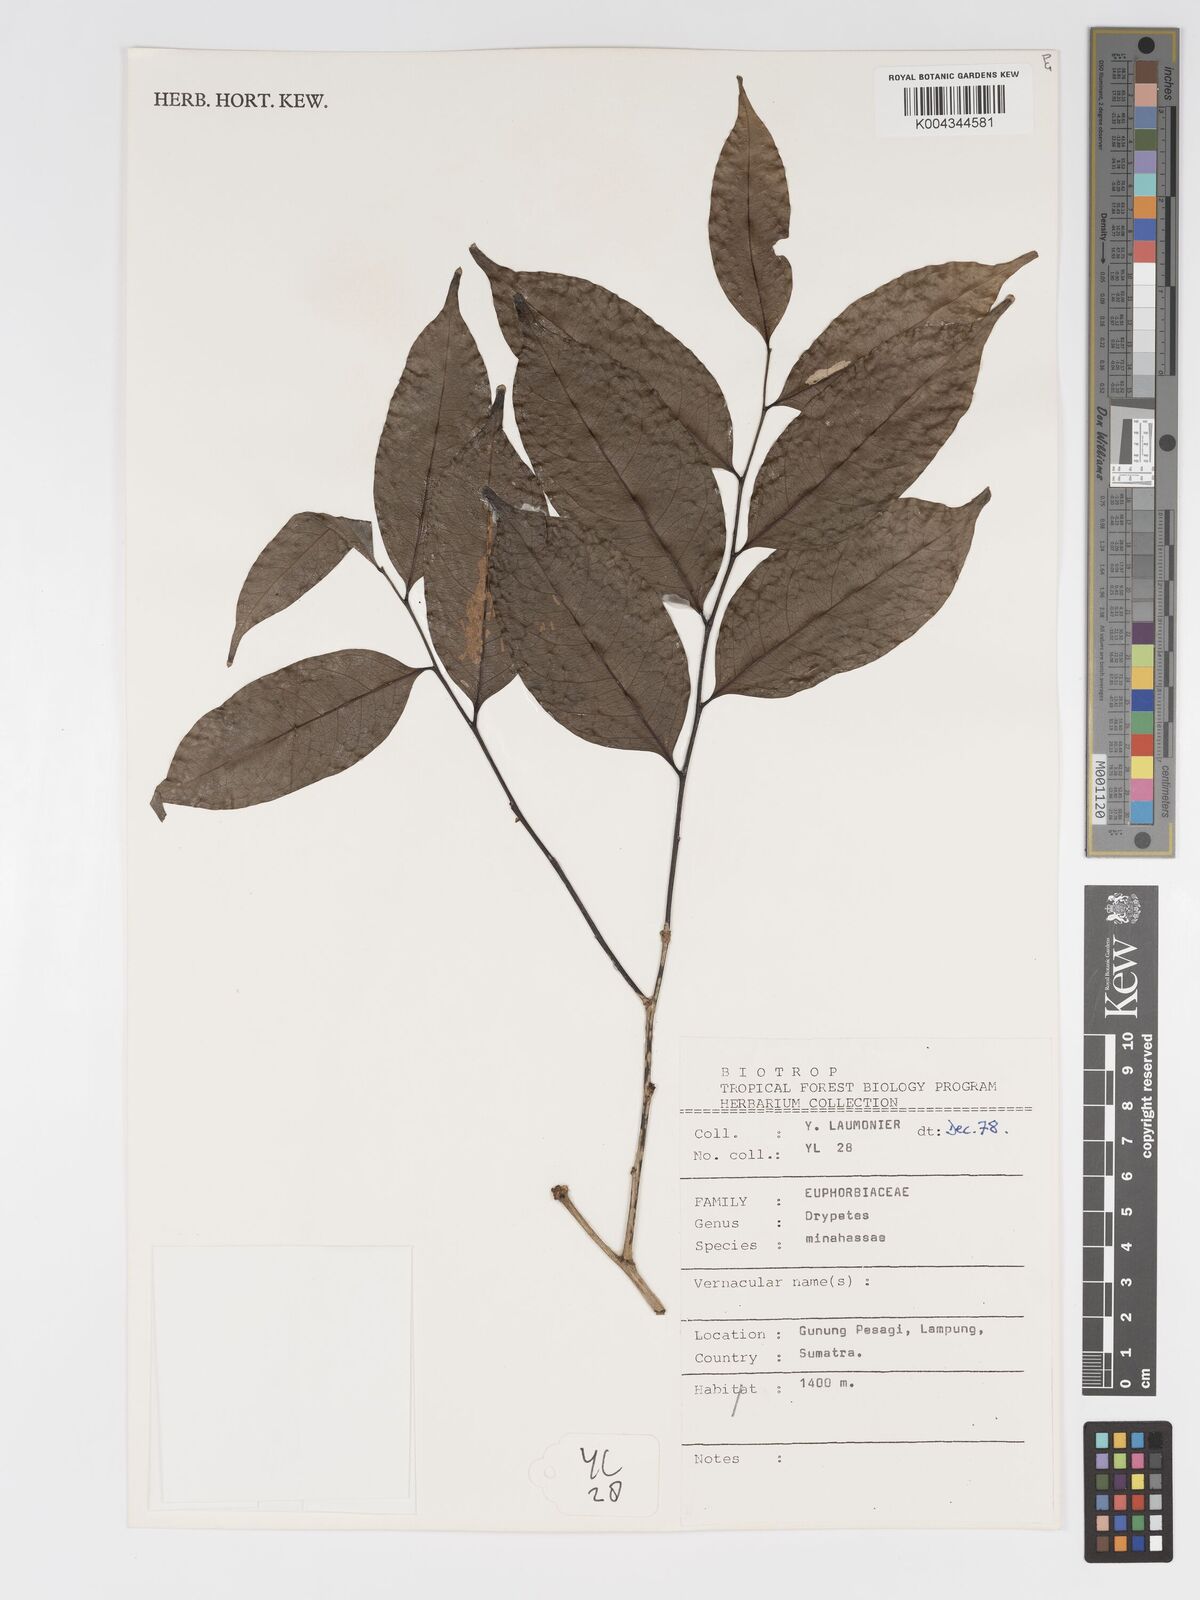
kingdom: Plantae
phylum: Tracheophyta
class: Magnoliopsida
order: Malpighiales
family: Putranjivaceae
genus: Drypetes
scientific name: Drypetes minahassae
